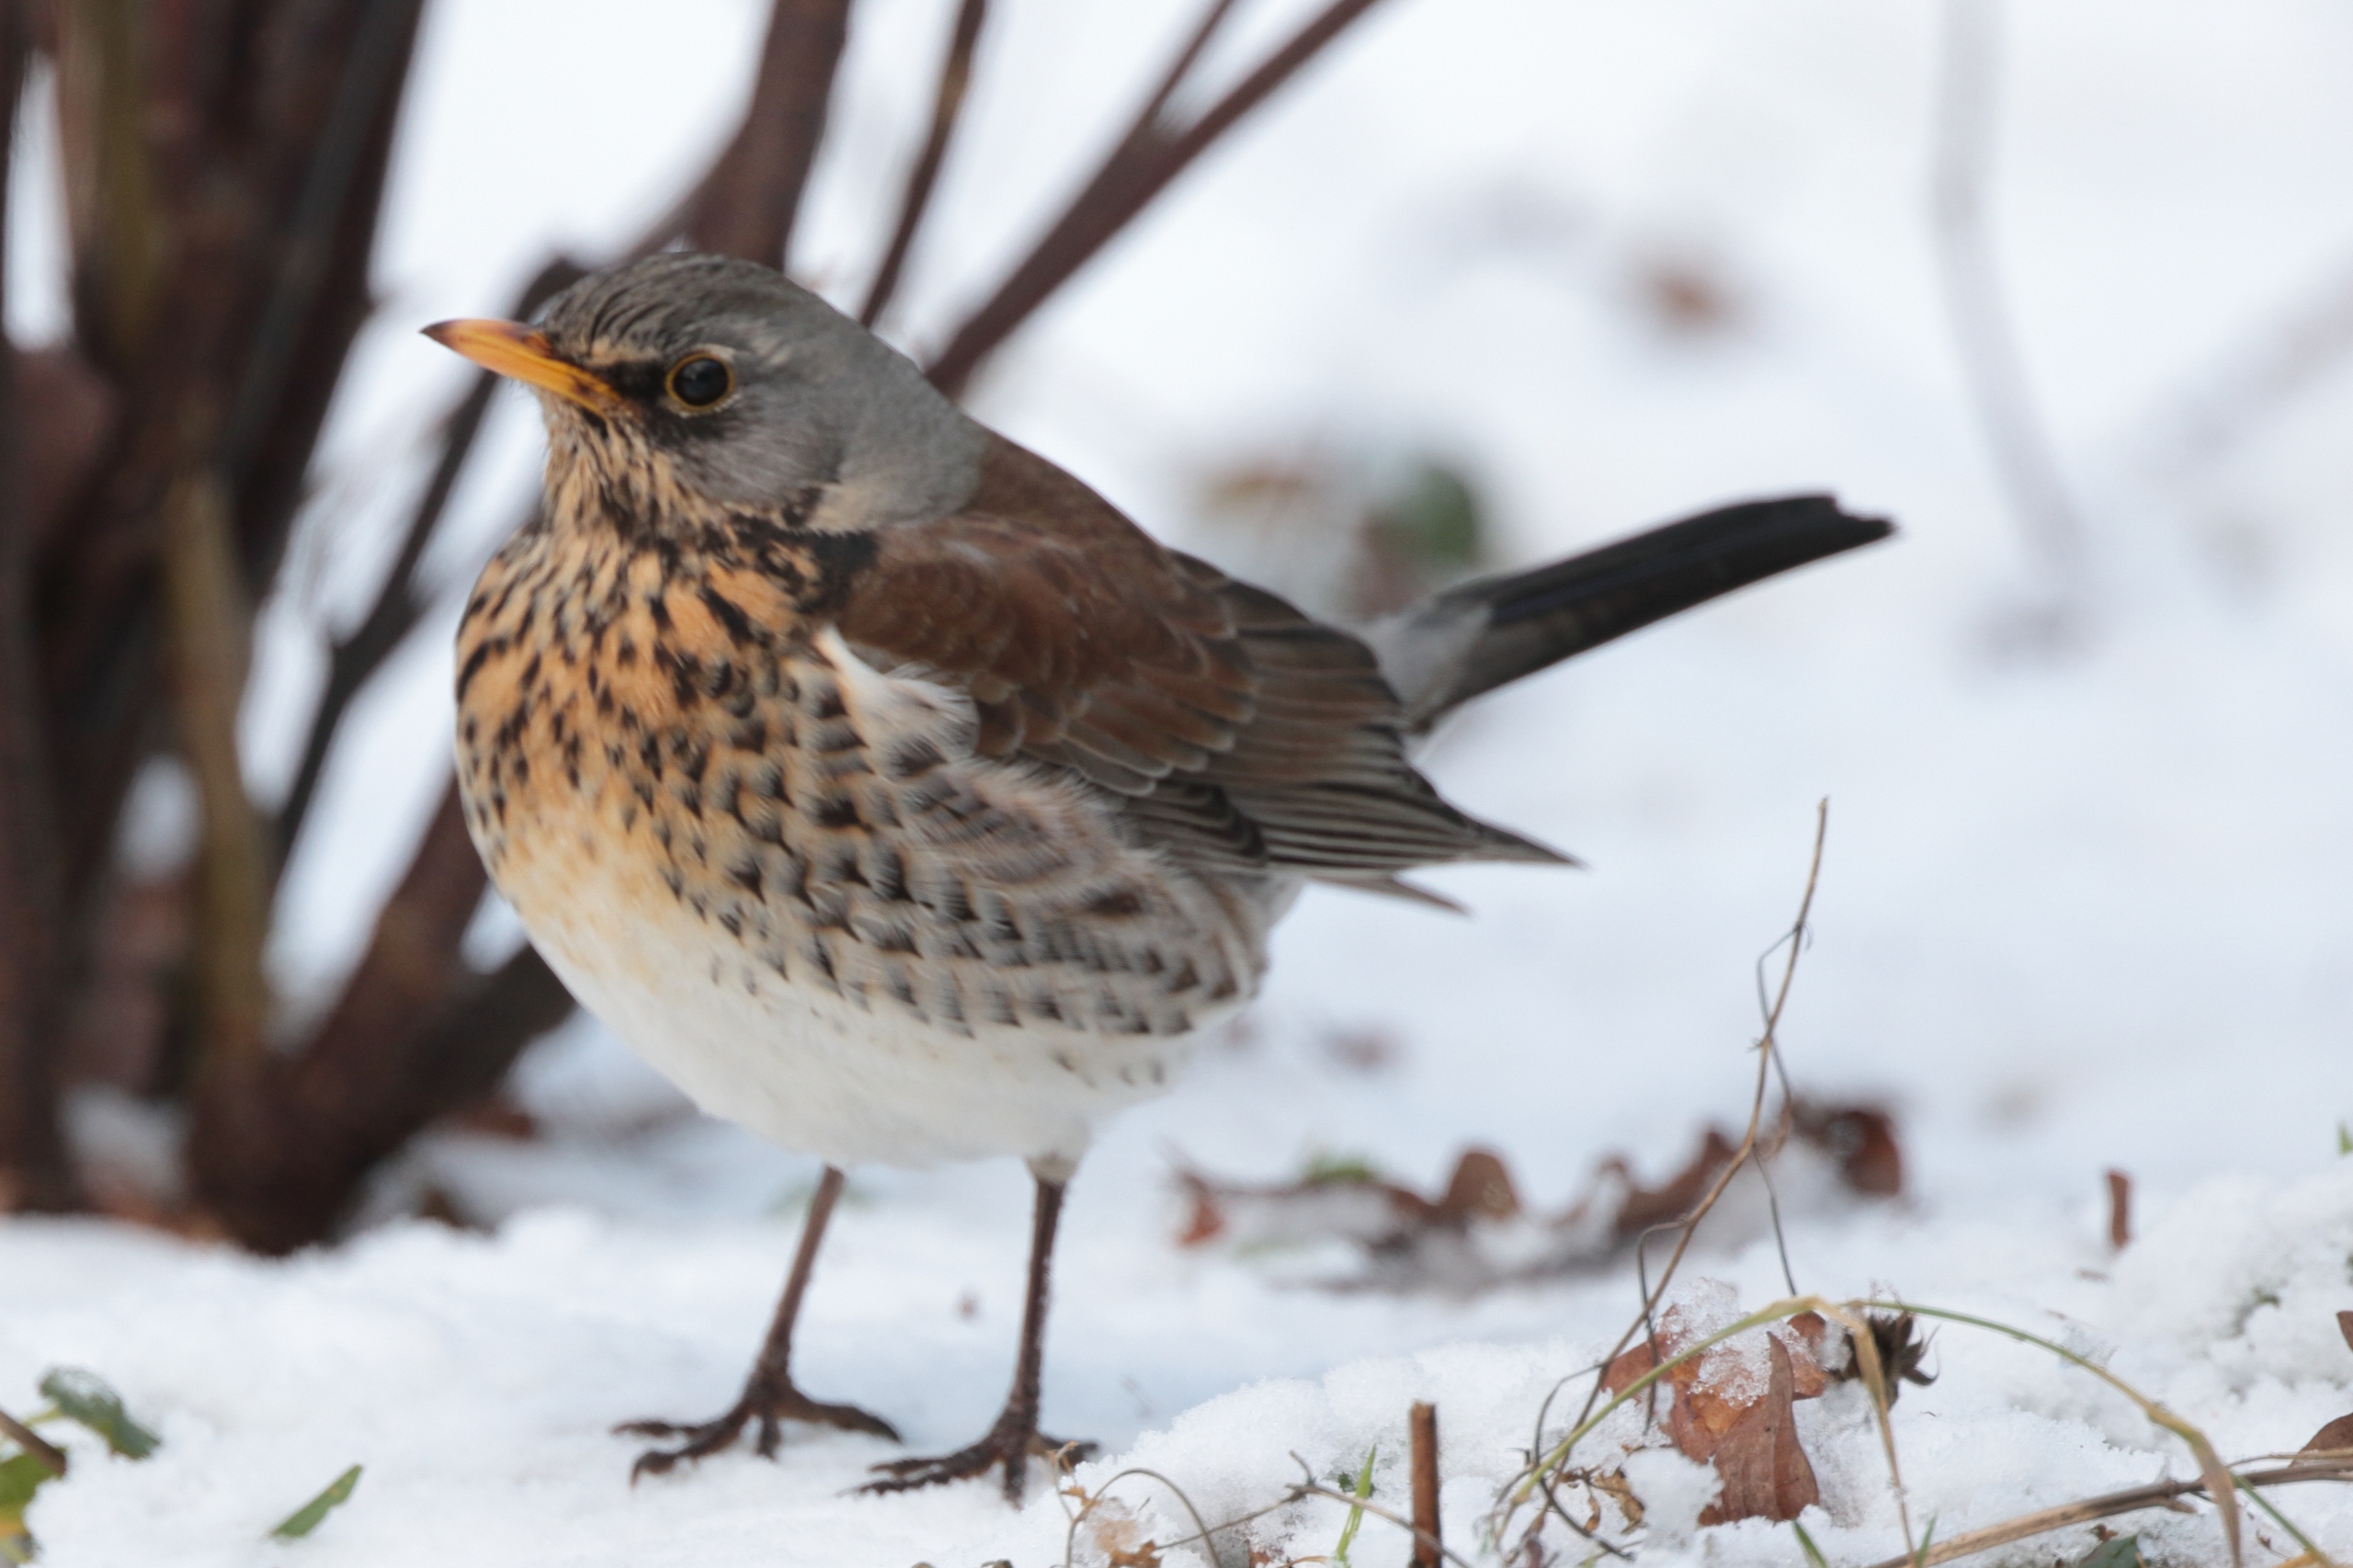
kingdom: Animalia
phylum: Chordata
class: Aves
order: Passeriformes
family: Turdidae
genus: Turdus
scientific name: Turdus pilaris
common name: Sjagger
